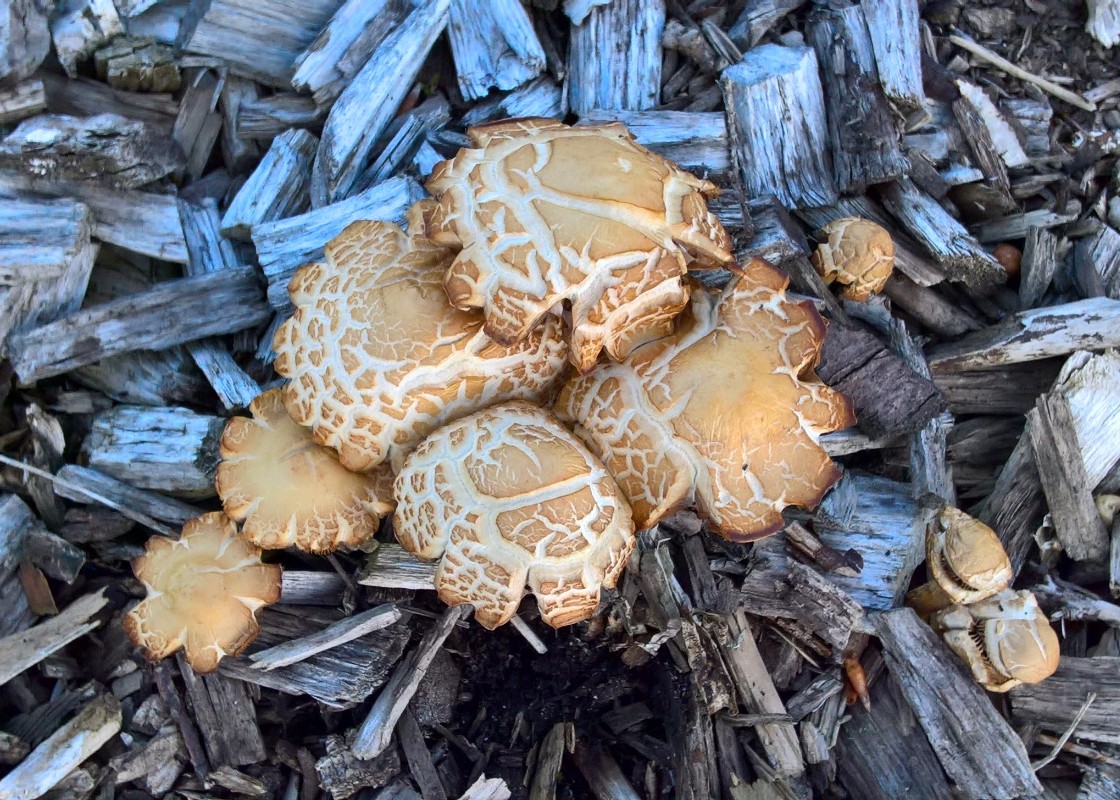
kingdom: Fungi
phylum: Basidiomycota
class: Agaricomycetes
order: Agaricales
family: Strophariaceae
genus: Agrocybe
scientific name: Agrocybe
